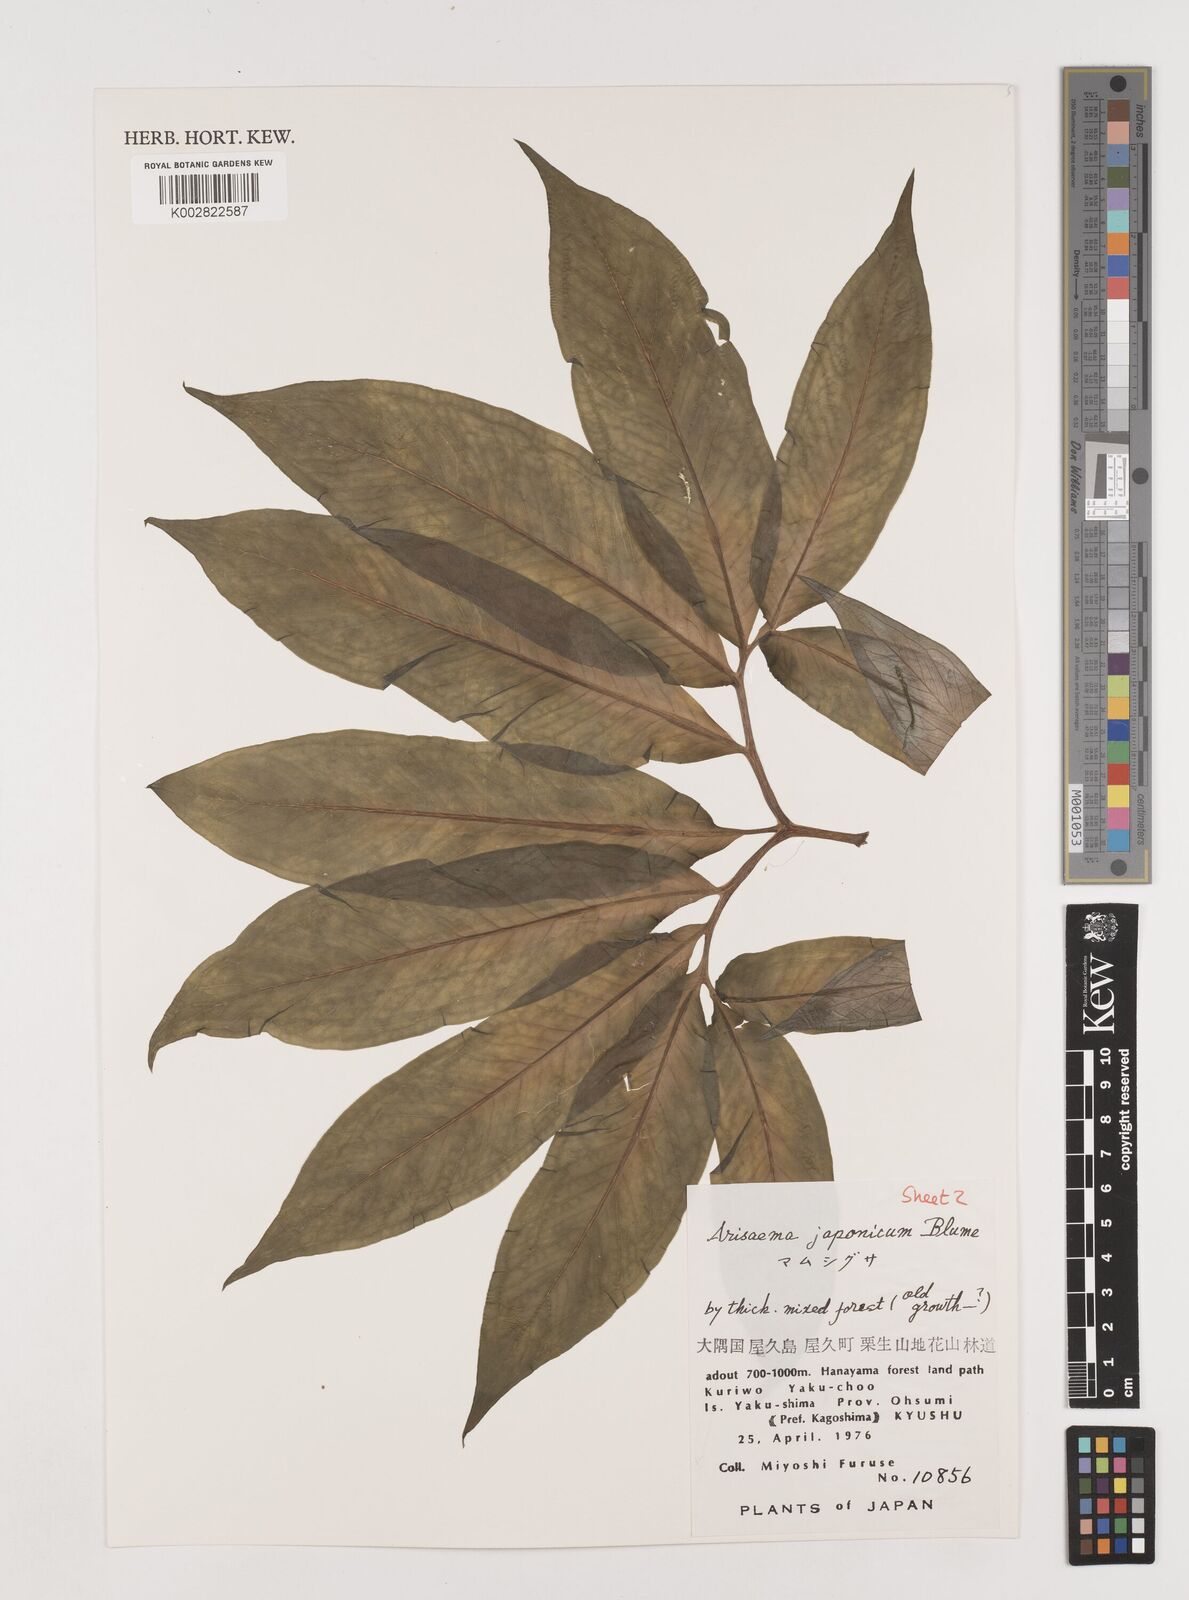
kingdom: Plantae
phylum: Tracheophyta
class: Liliopsida
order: Alismatales
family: Araceae
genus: Arisaema
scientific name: Arisaema serratum
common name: Japanese arisaema
